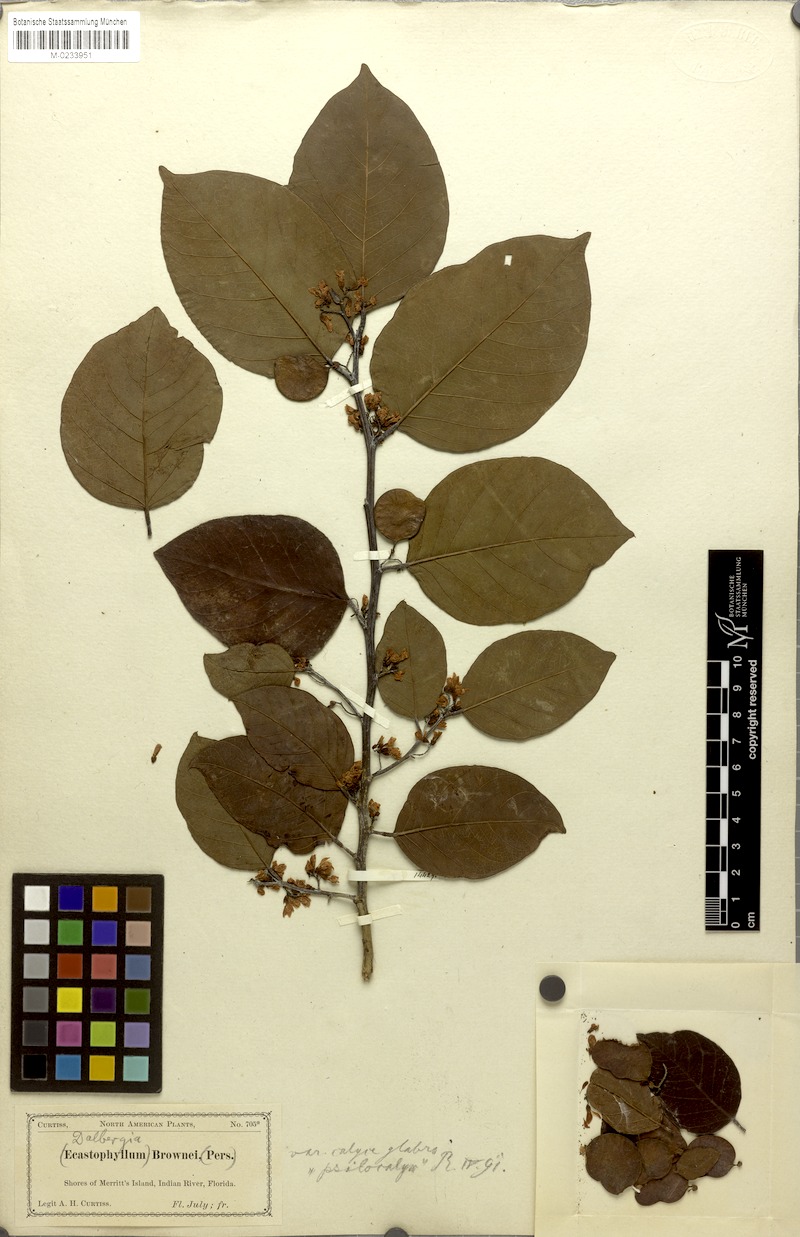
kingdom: Plantae
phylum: Tracheophyta
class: Magnoliopsida
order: Fabales
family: Fabaceae
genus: Dalbergia
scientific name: Dalbergia ovalis
